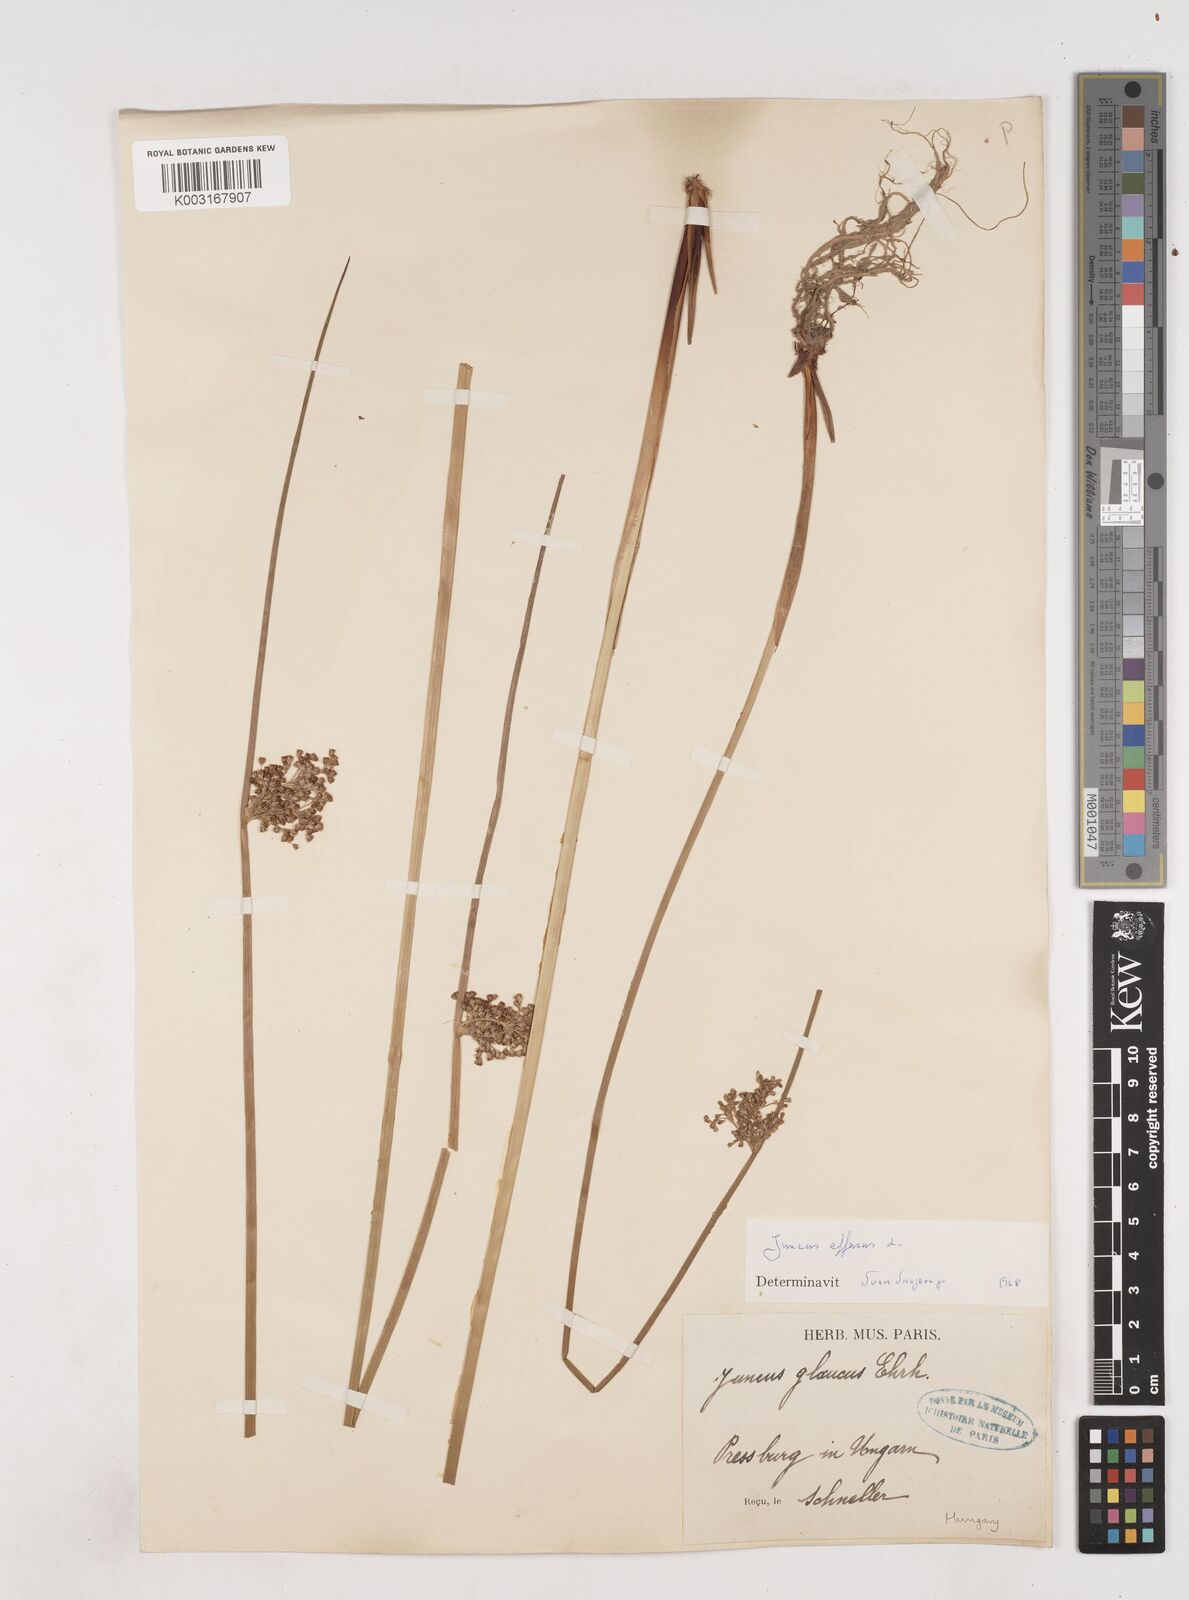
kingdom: Plantae
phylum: Tracheophyta
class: Liliopsida
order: Poales
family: Juncaceae
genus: Juncus
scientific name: Juncus effusus
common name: Soft rush
